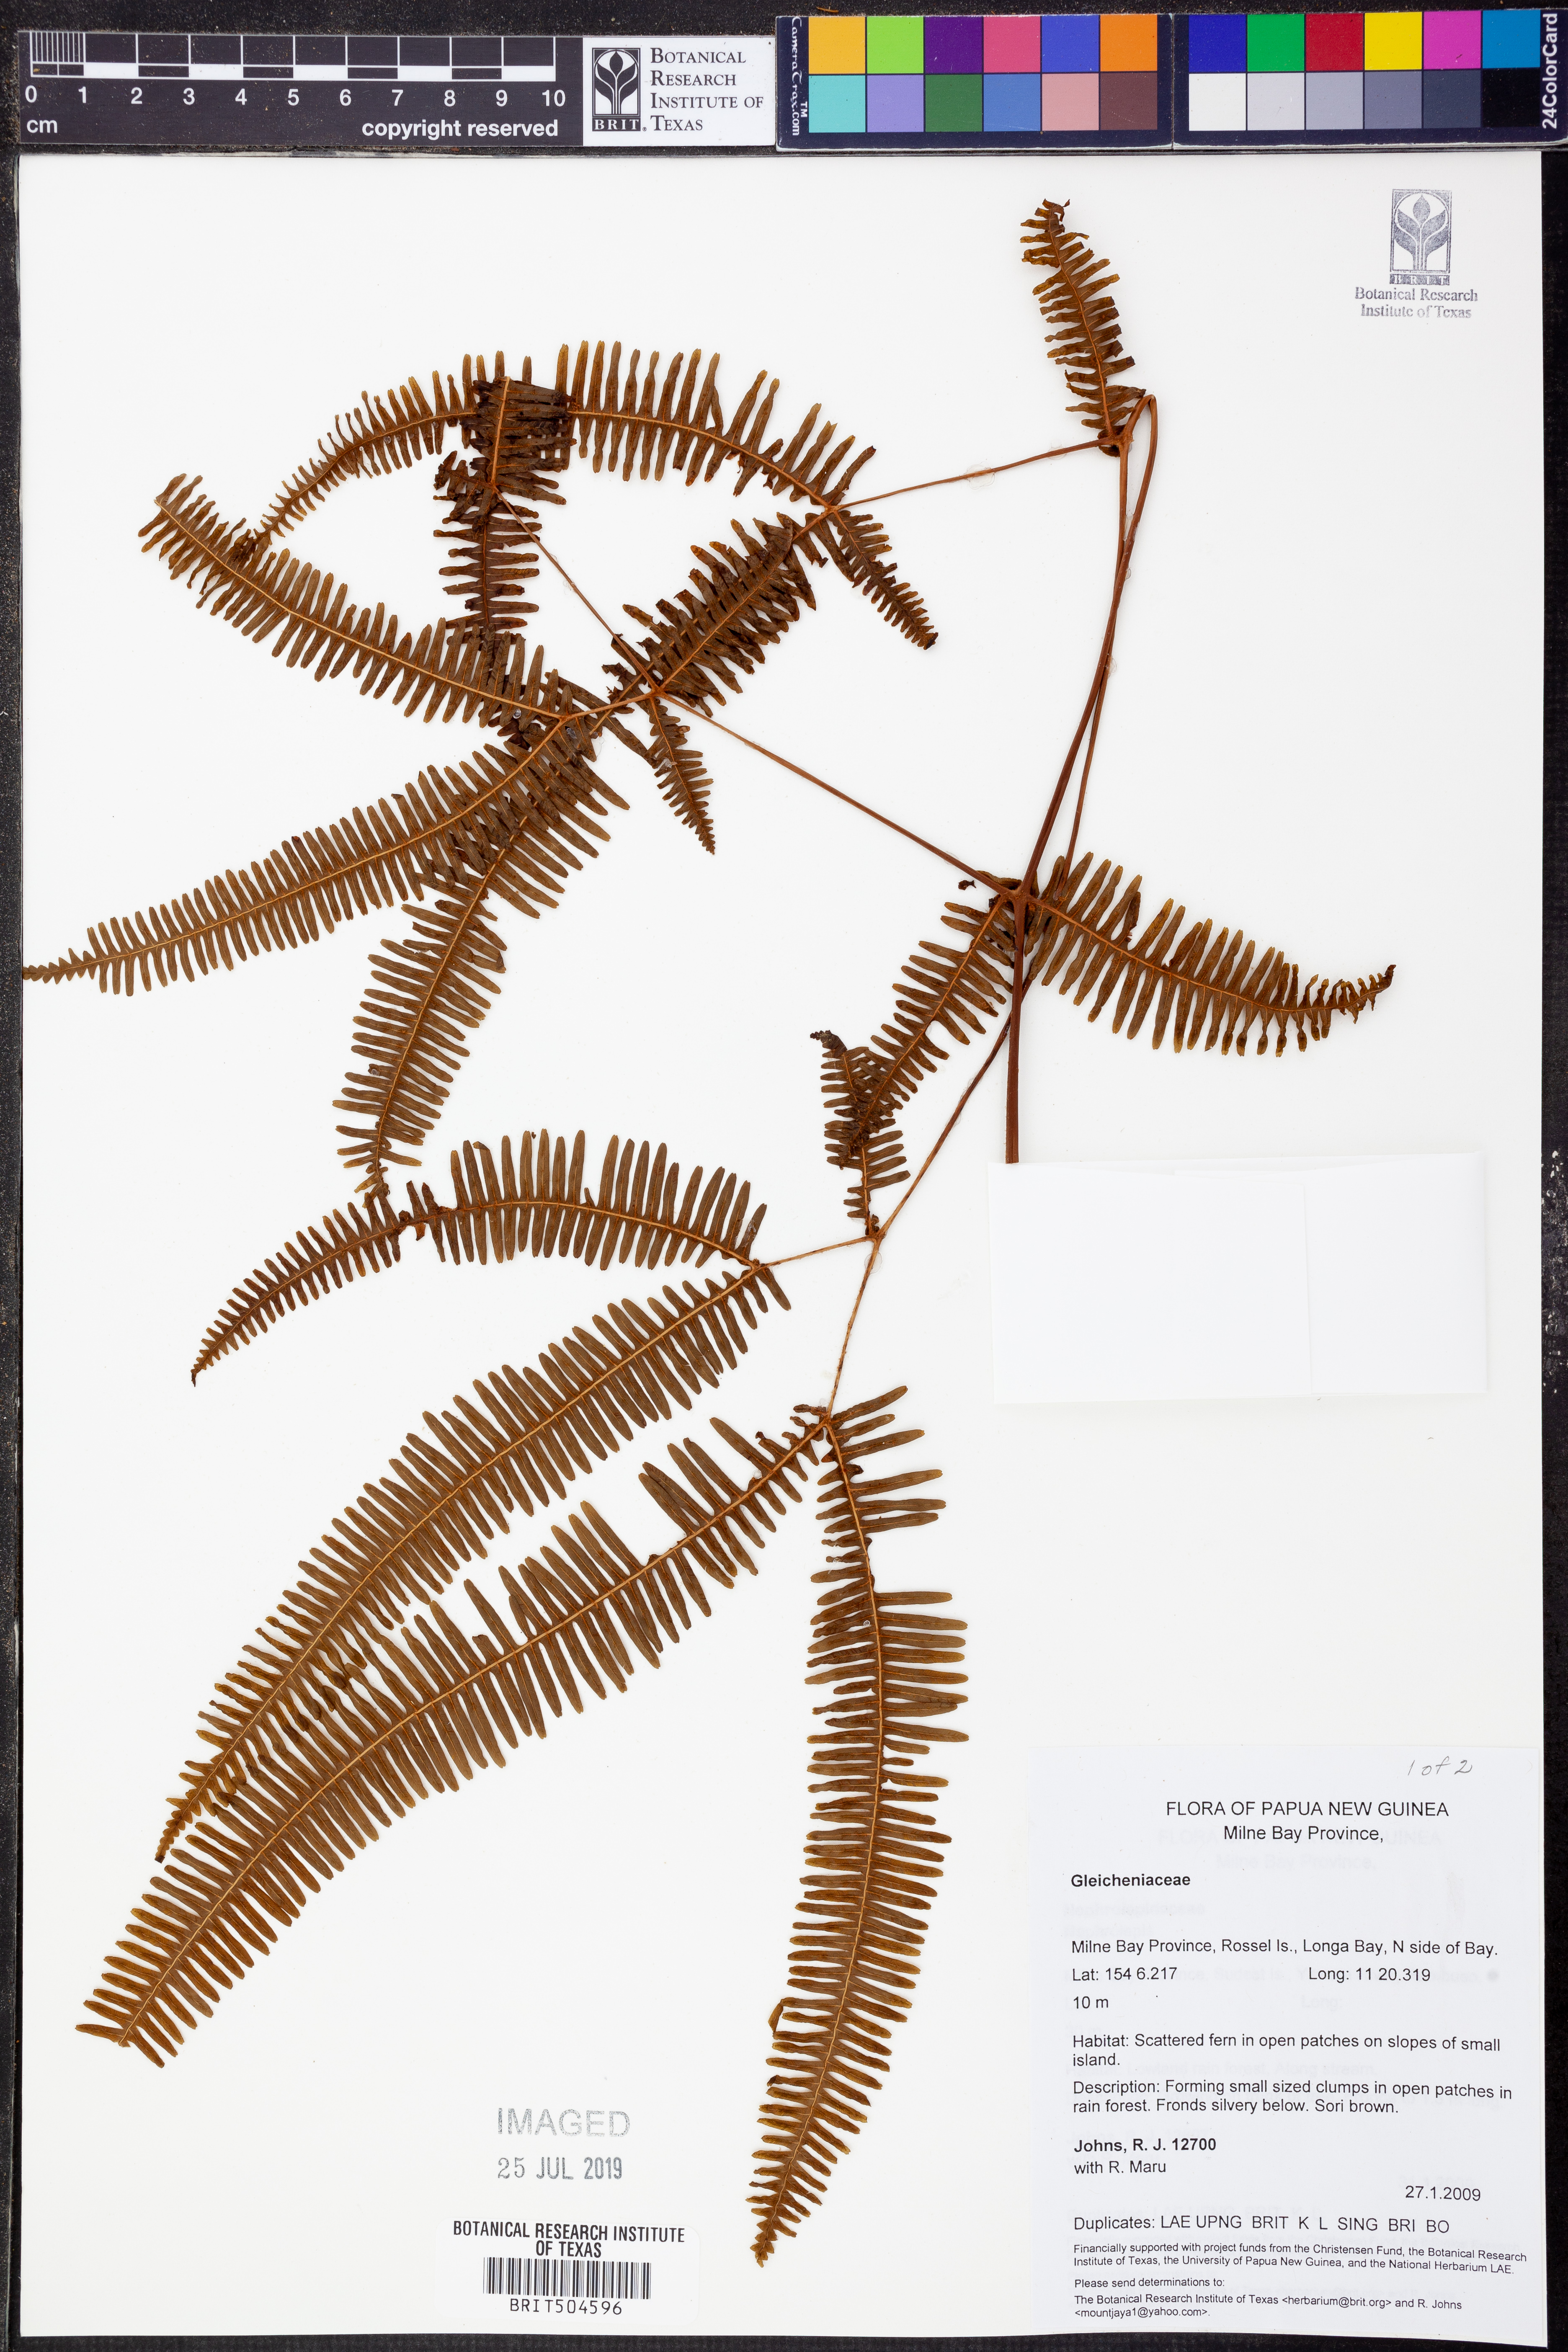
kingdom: Plantae
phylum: Tracheophyta
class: Polypodiopsida
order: Gleicheniales
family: Gleicheniaceae
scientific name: Gleicheniaceae
